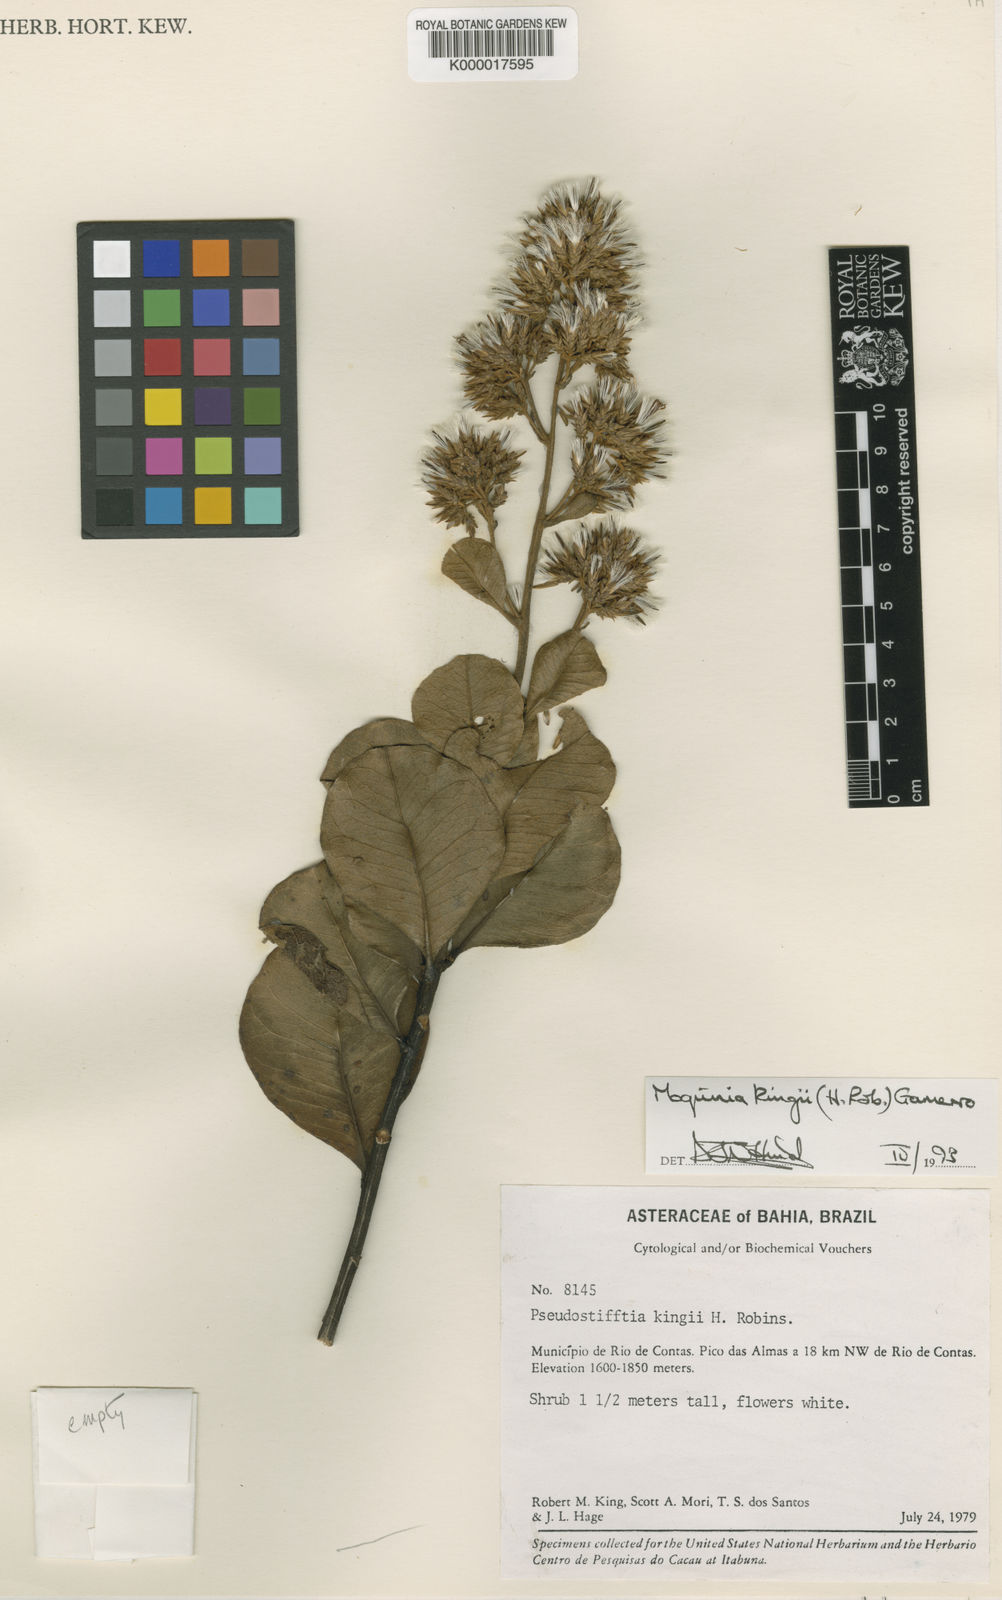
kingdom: Plantae
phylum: Tracheophyta
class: Magnoliopsida
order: Asterales
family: Asteraceae
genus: Pseudostifftia
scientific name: Pseudostifftia kingii
